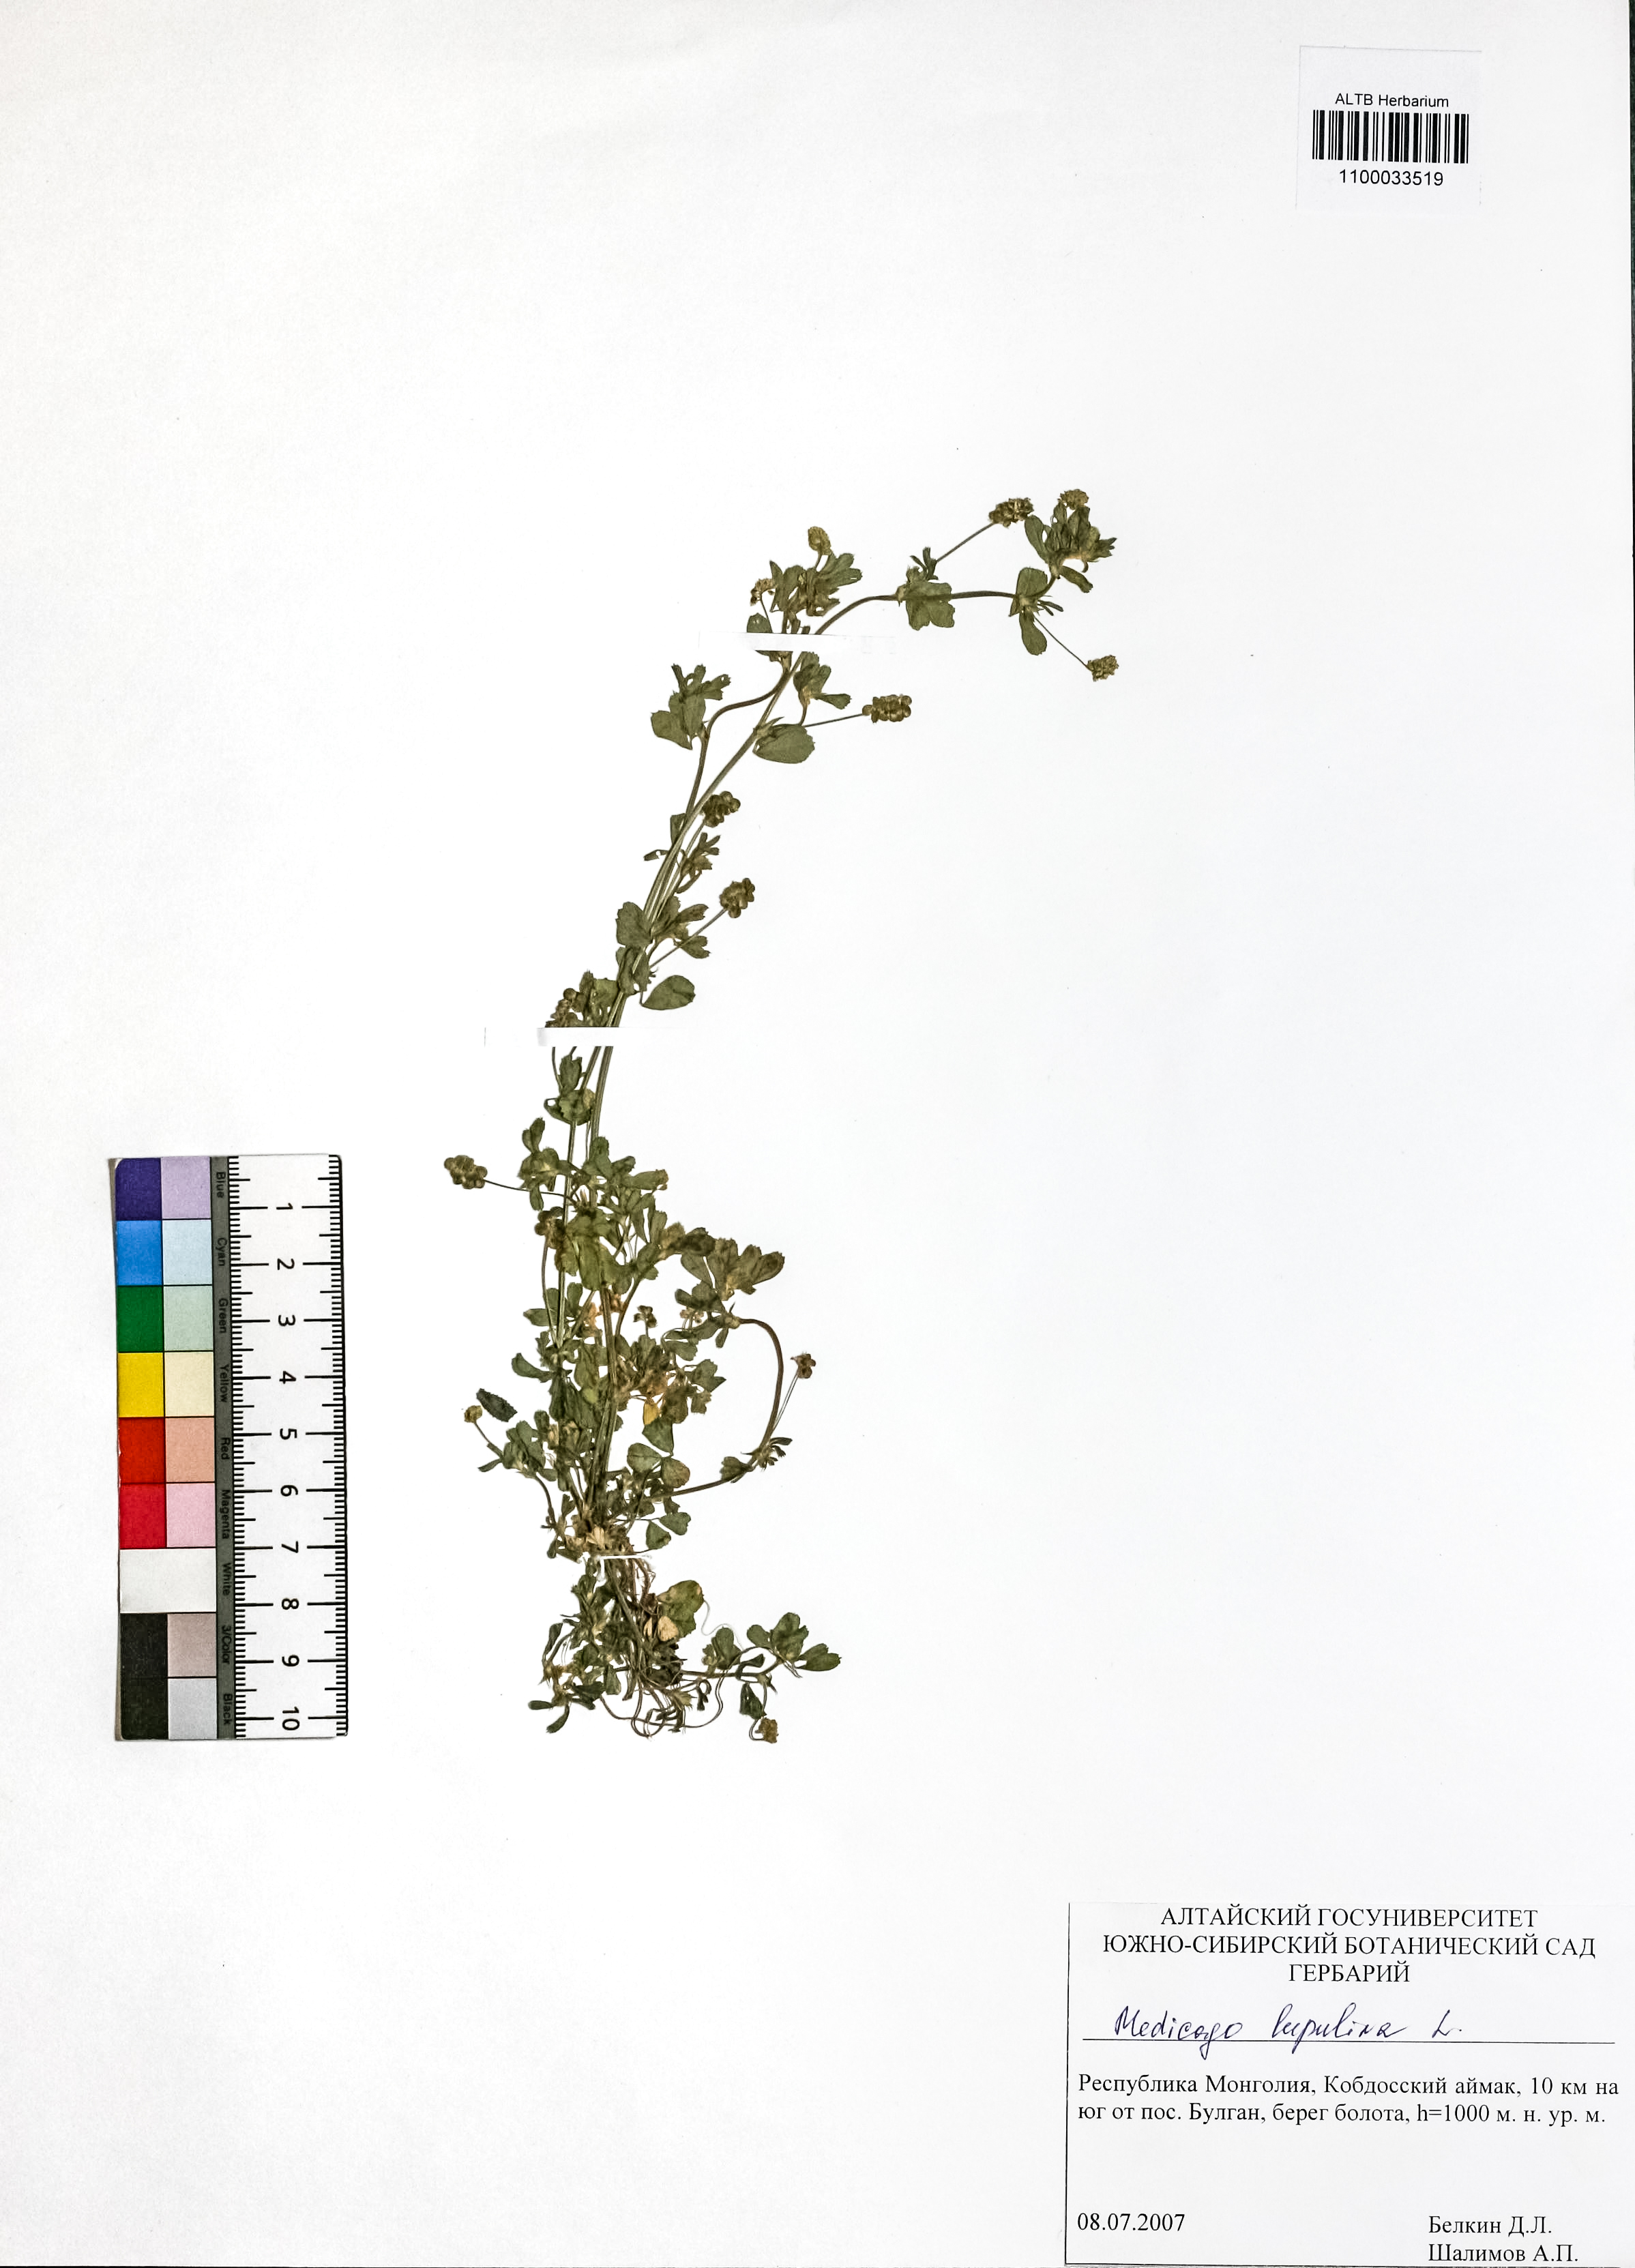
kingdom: Plantae
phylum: Tracheophyta
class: Magnoliopsida
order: Fabales
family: Fabaceae
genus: Medicago
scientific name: Medicago lupulina
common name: Black medick
